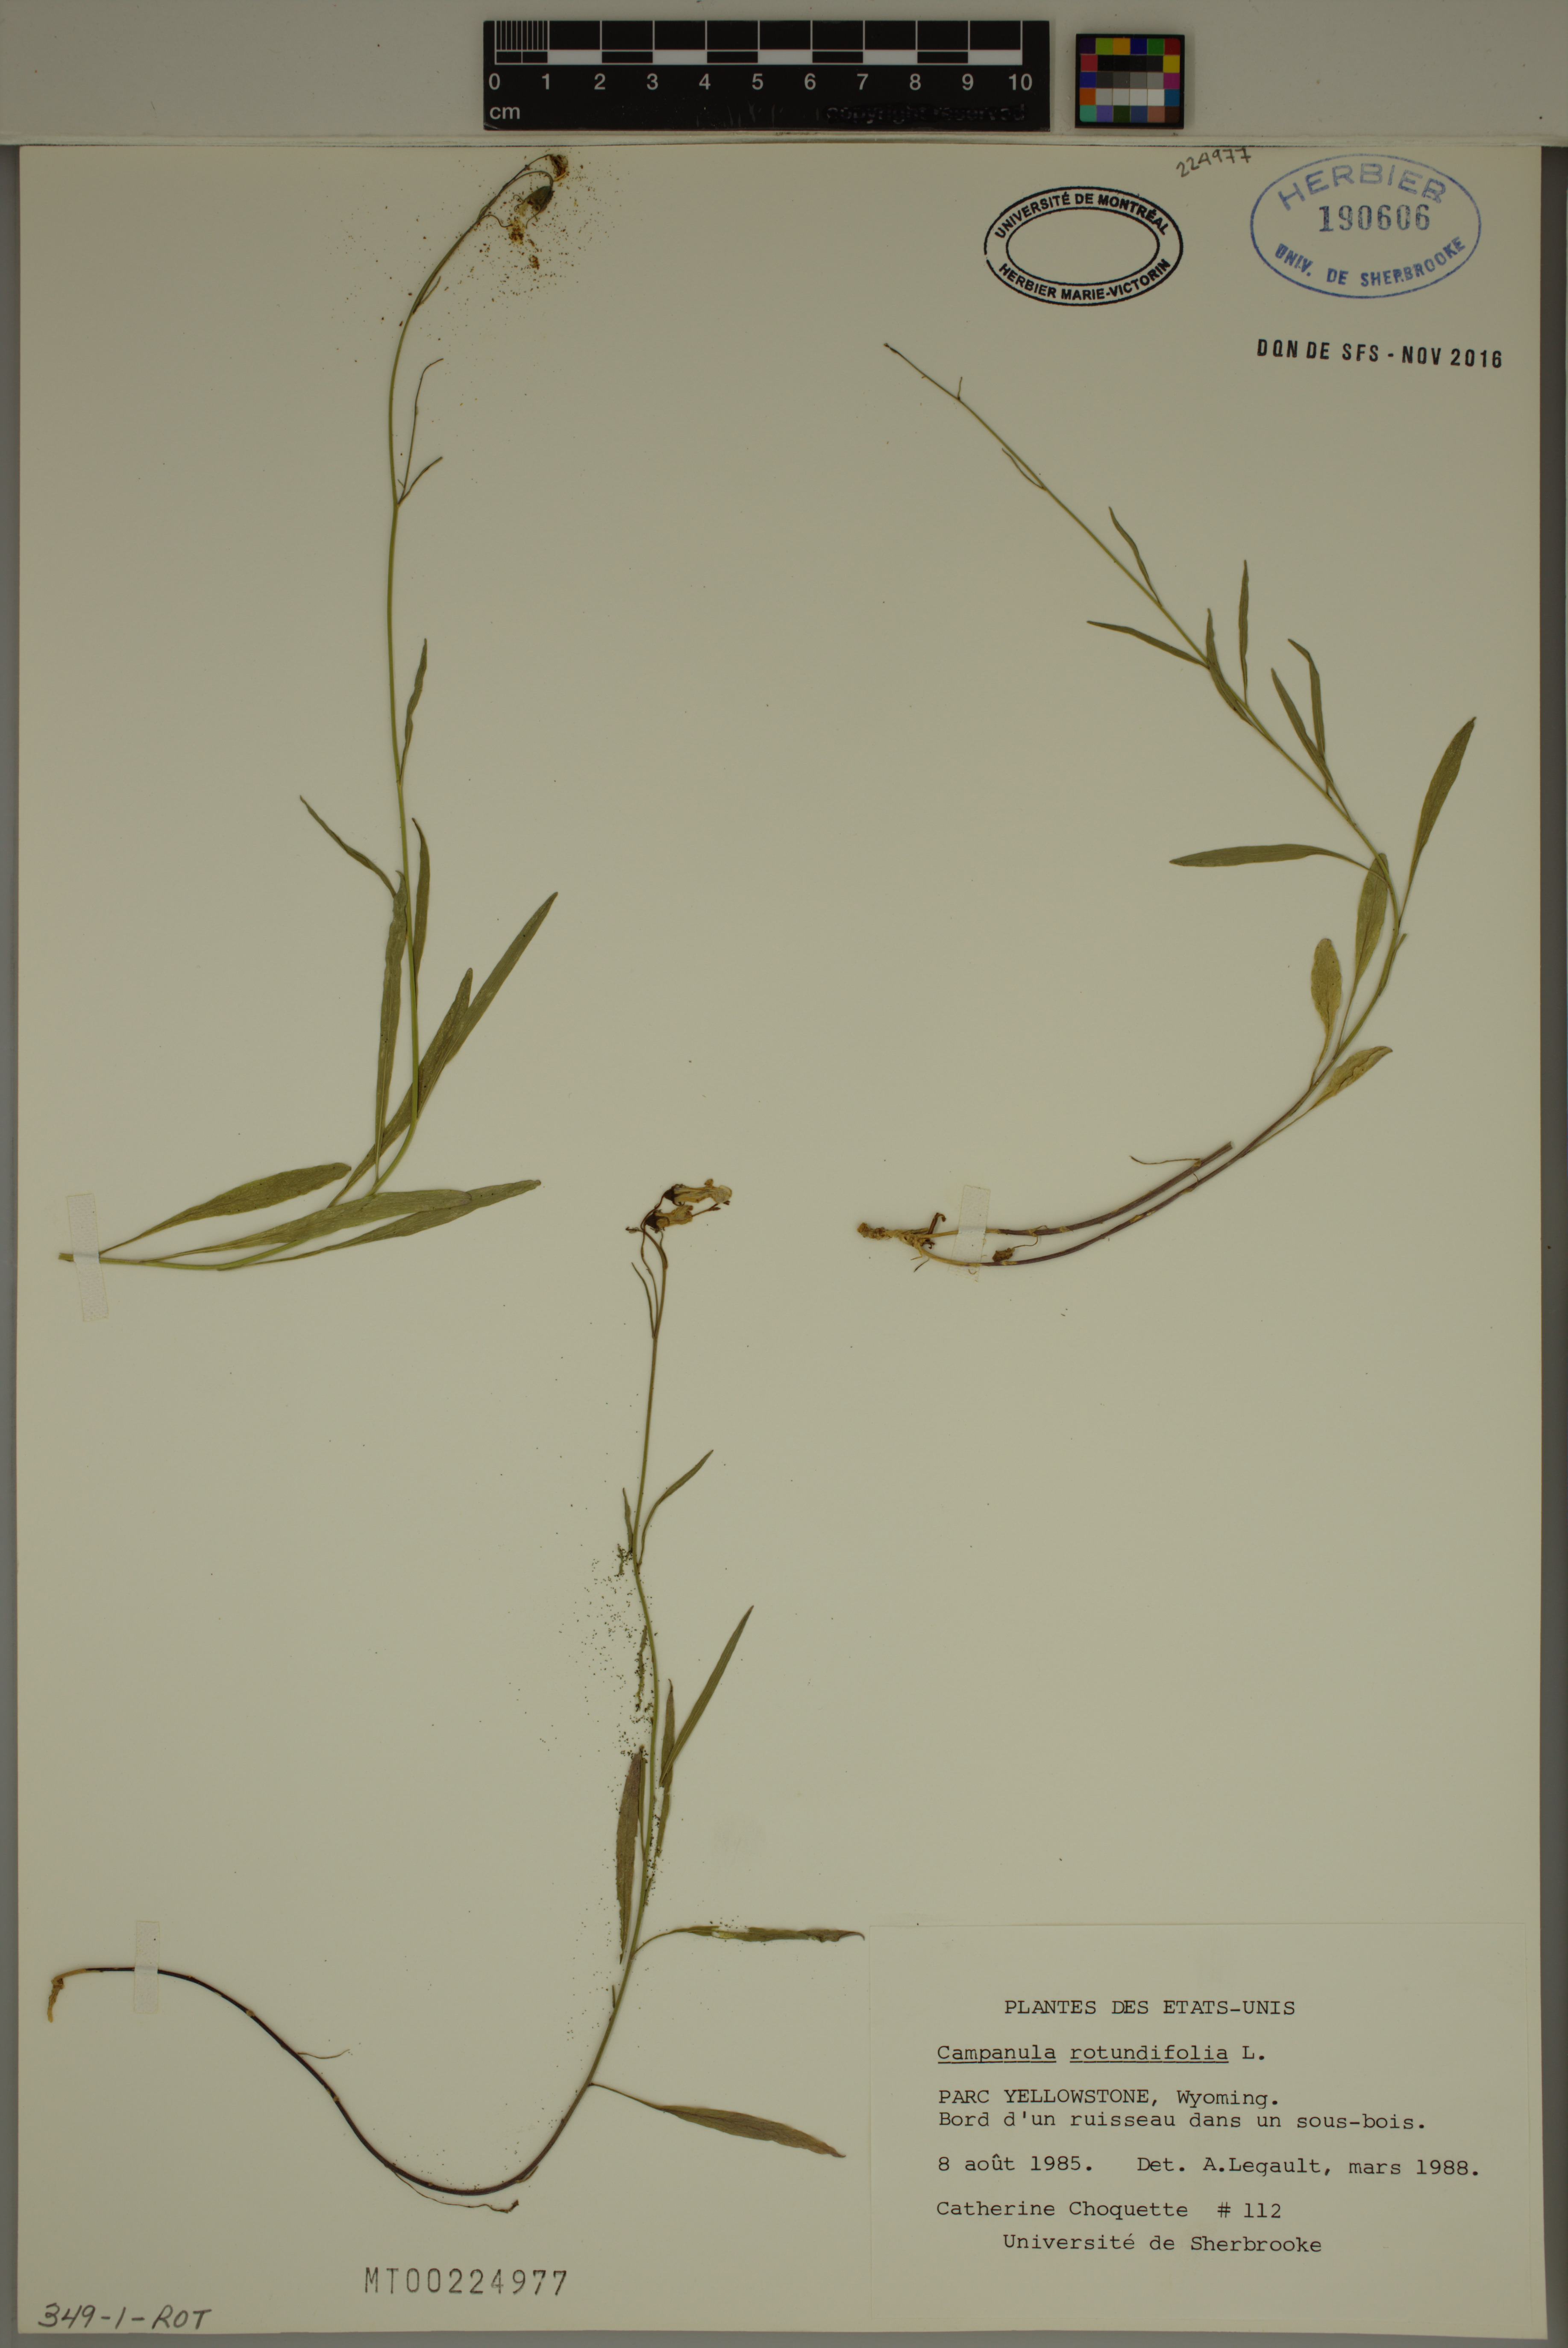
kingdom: Plantae
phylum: Tracheophyta
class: Magnoliopsida
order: Asterales
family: Campanulaceae
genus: Campanula
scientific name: Campanula rotundifolia
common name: Harebell
